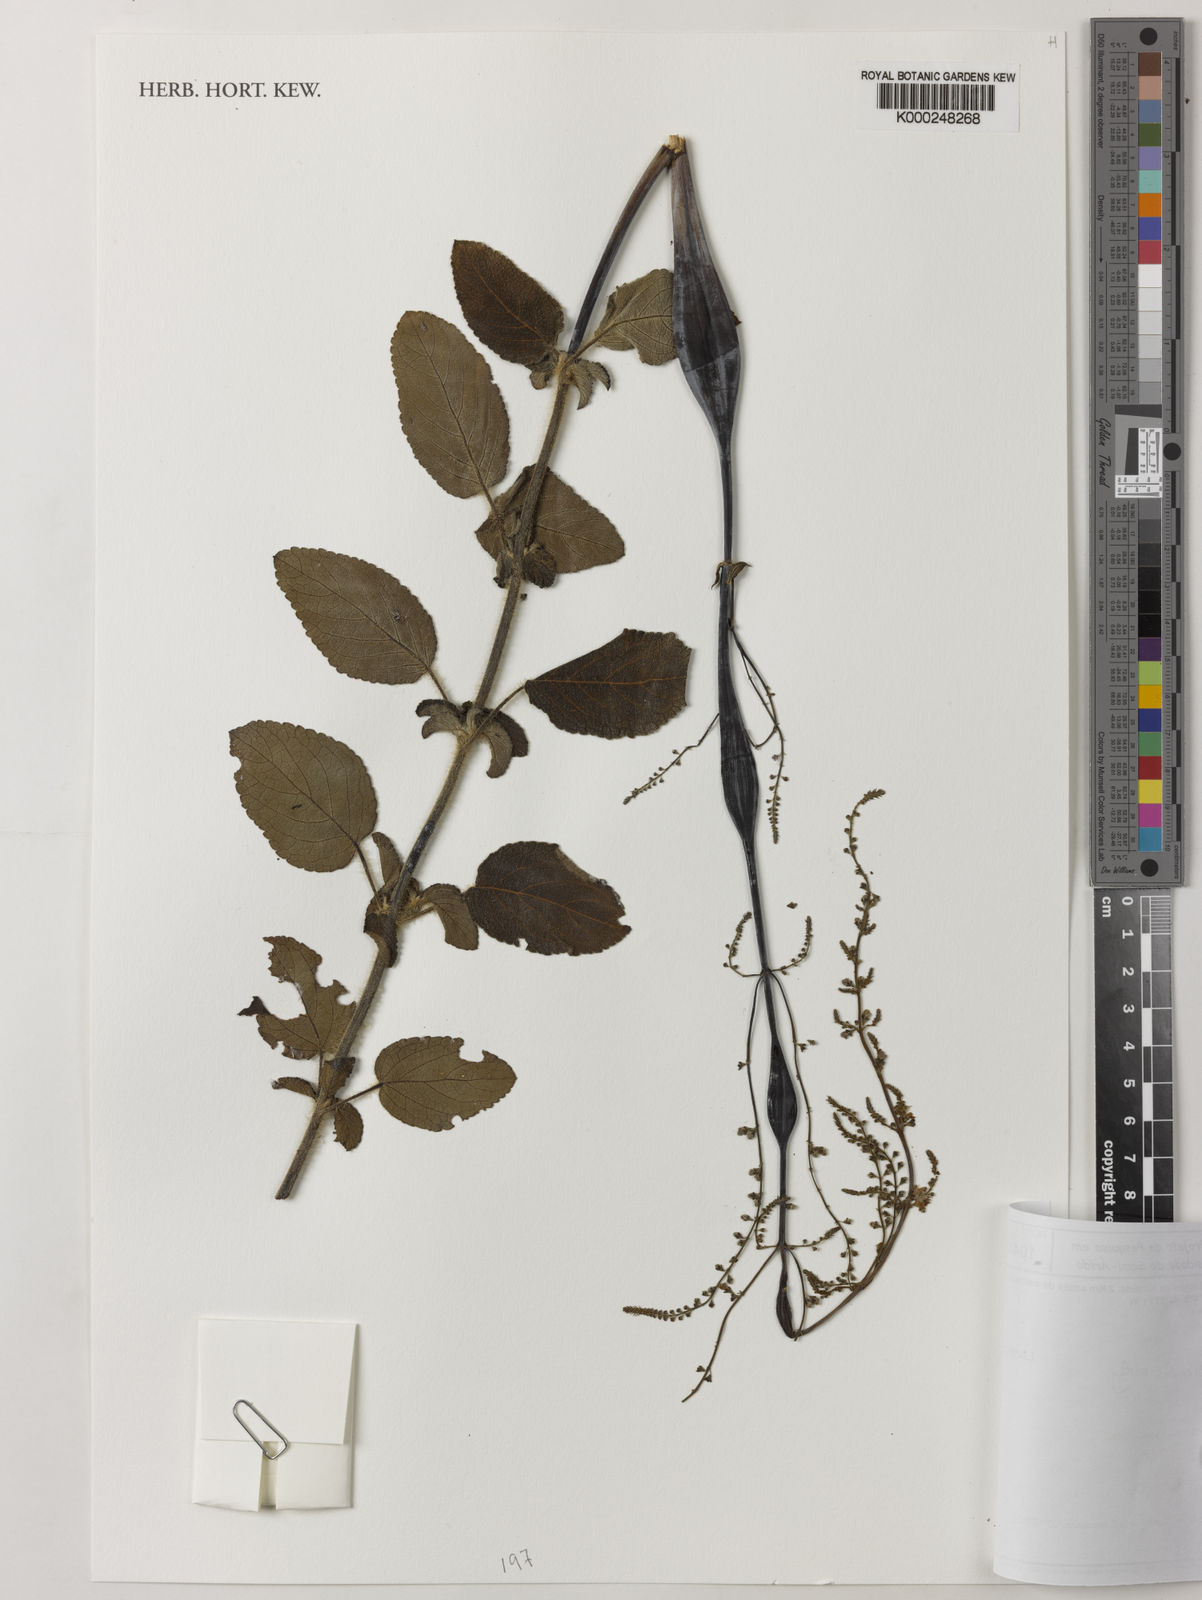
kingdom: Plantae
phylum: Tracheophyta
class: Magnoliopsida
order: Lamiales
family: Lamiaceae
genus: Eriope
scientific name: Eriope tumidicaulis
